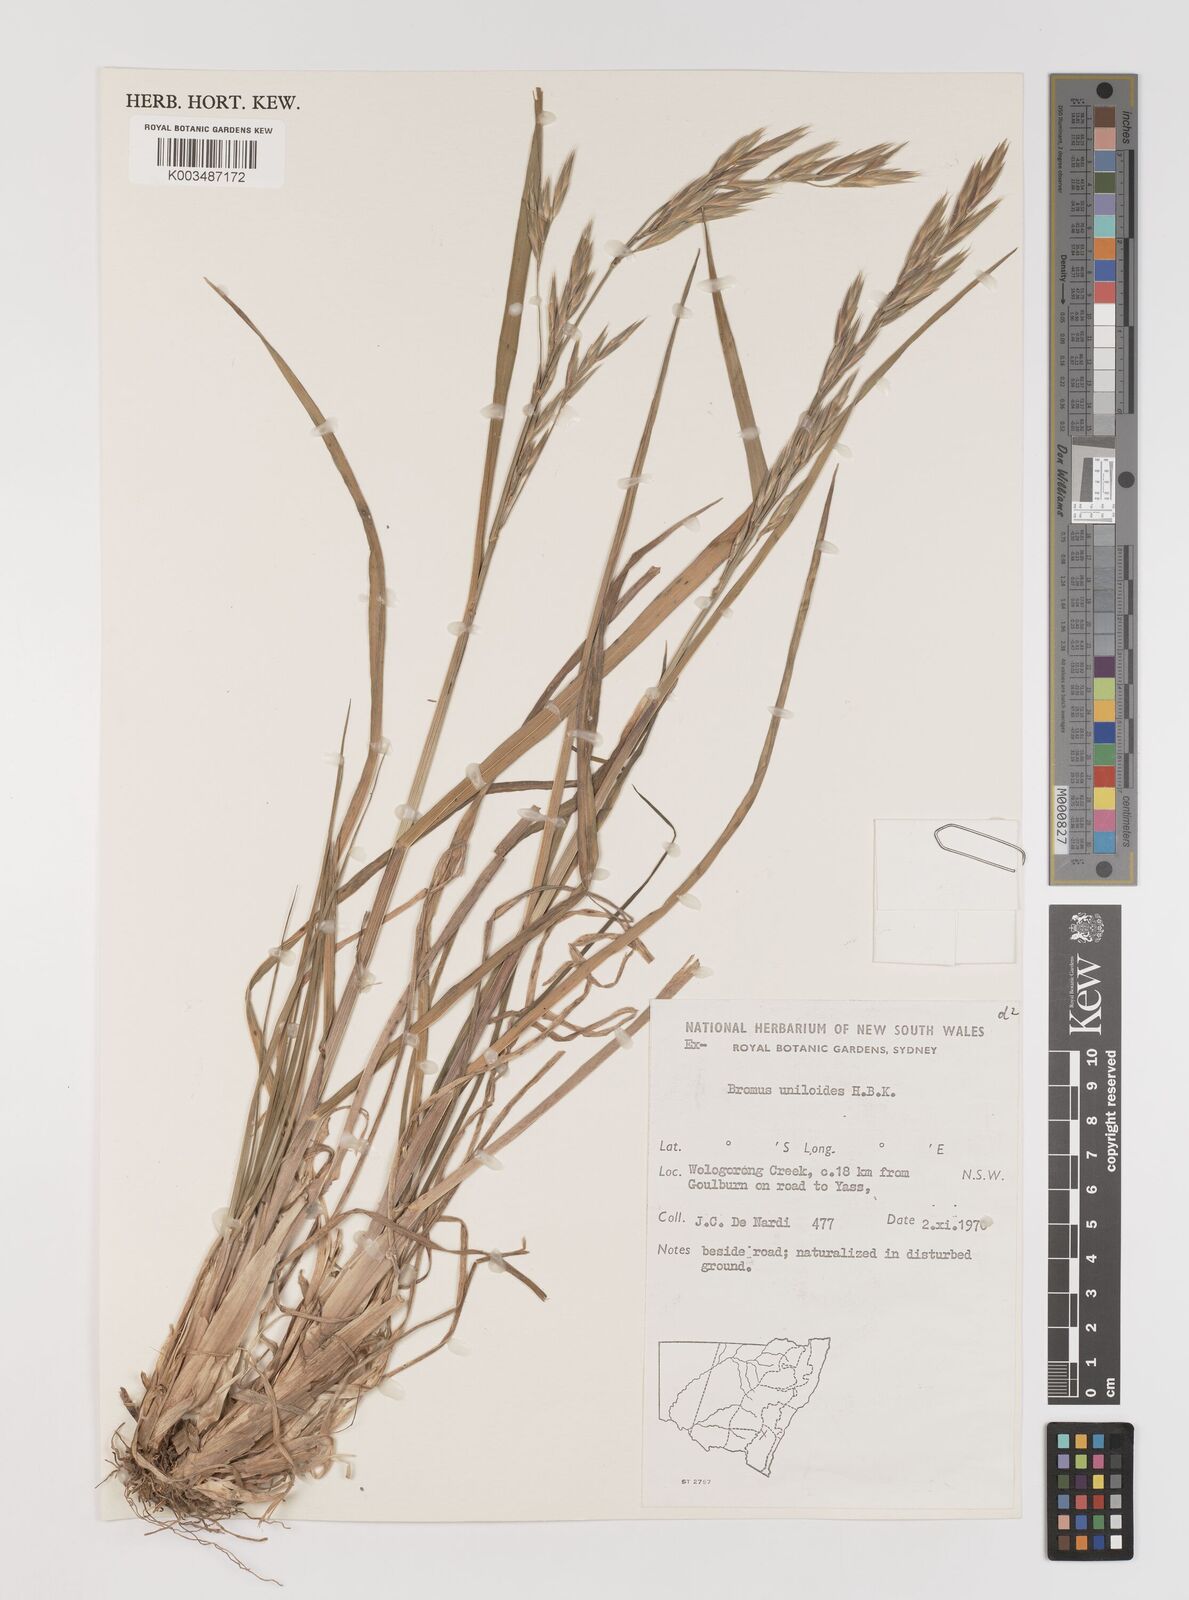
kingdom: Plantae
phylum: Tracheophyta
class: Liliopsida
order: Poales
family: Poaceae
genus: Bromus
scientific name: Bromus catharticus
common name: Rescuegrass
